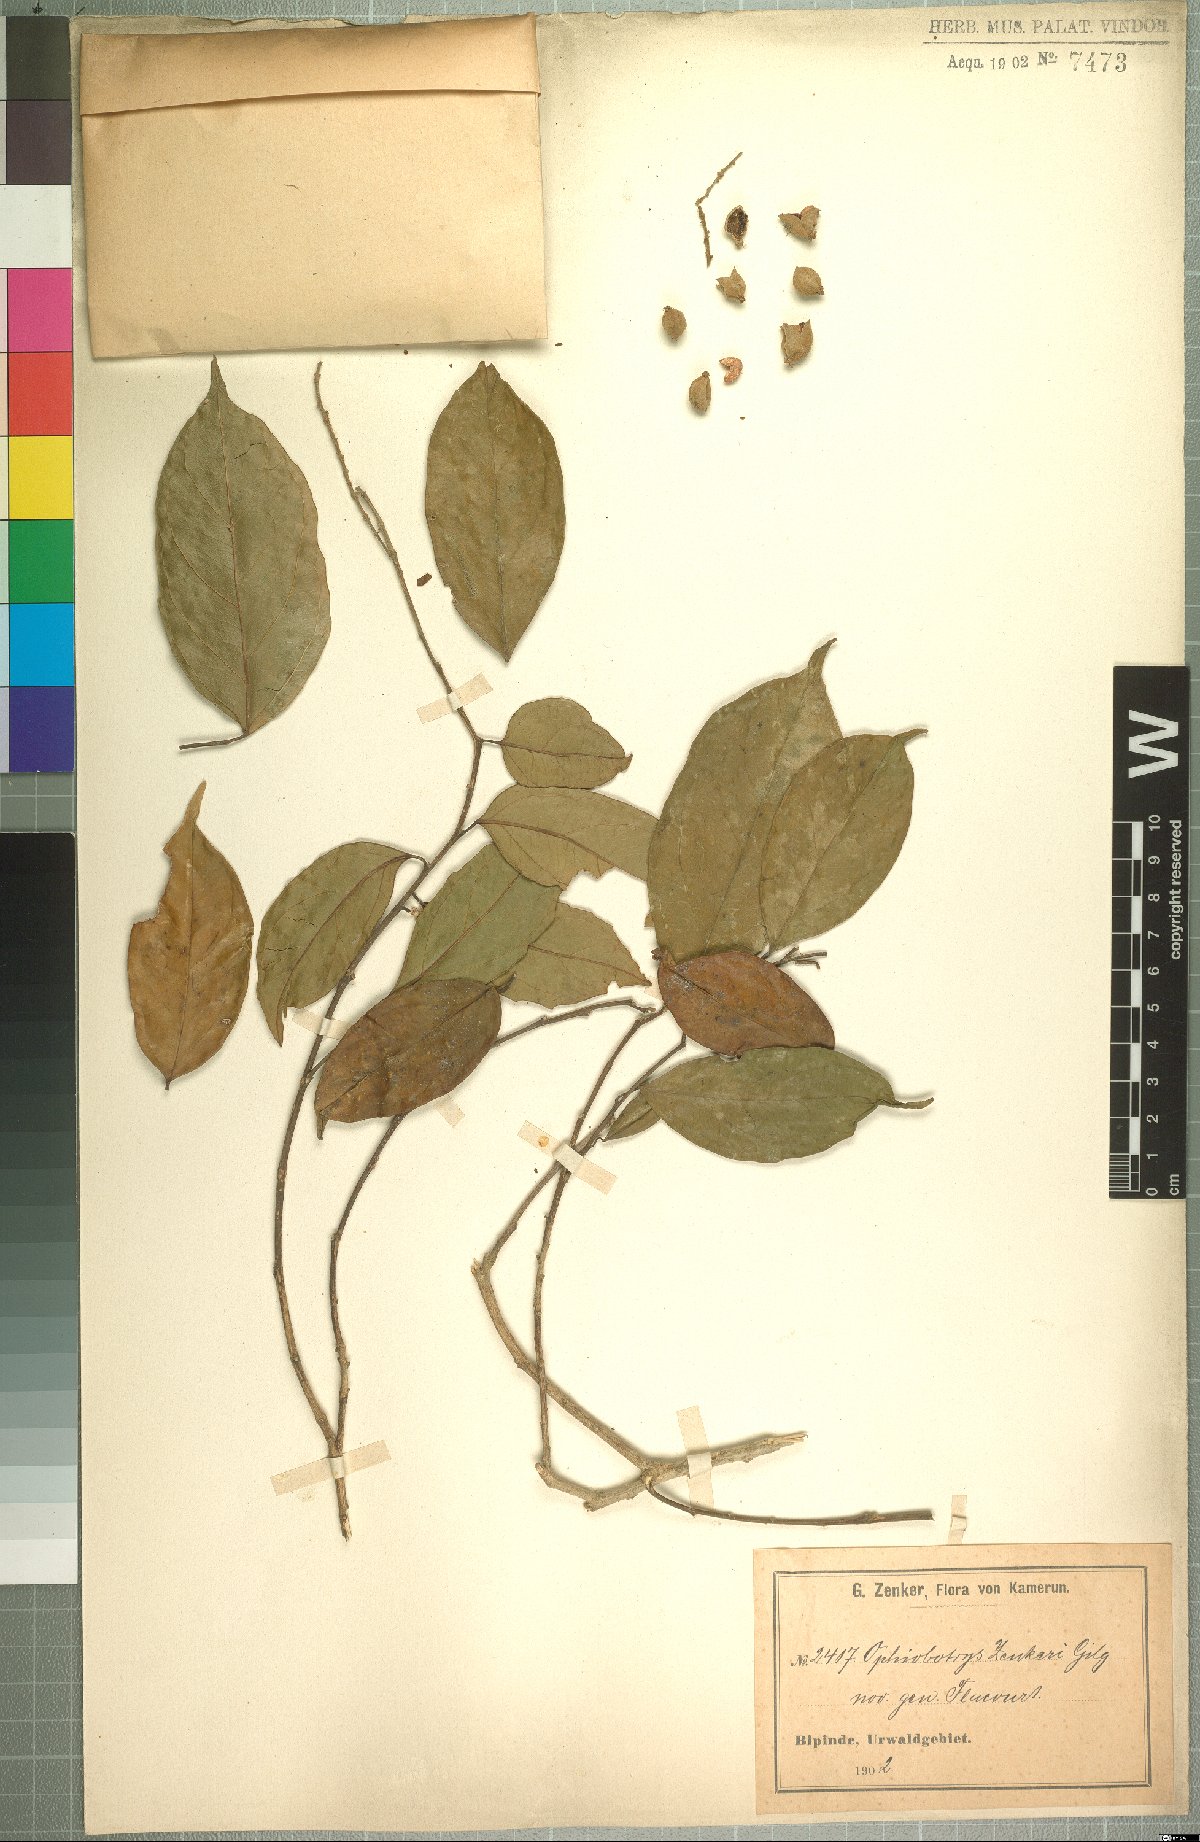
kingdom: Plantae
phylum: Tracheophyta
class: Magnoliopsida
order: Malpighiales
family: Salicaceae
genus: Ophiobotrys
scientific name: Ophiobotrys zenkeri
